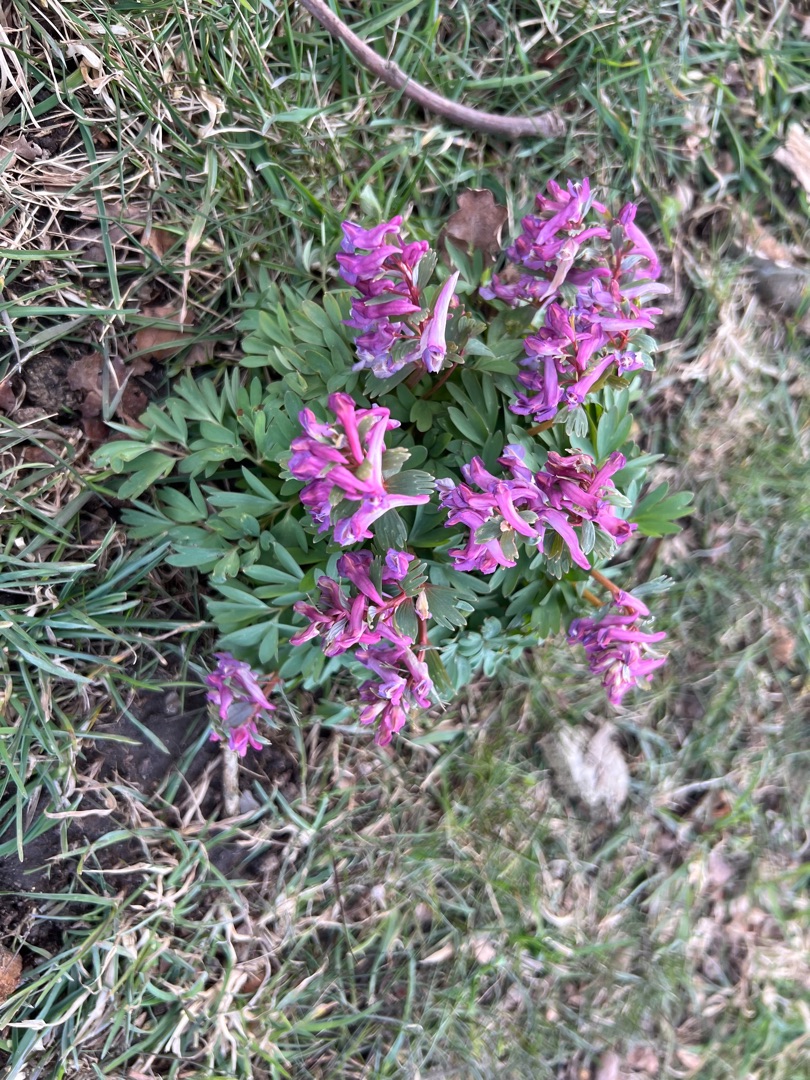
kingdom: Plantae
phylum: Tracheophyta
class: Magnoliopsida
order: Ranunculales
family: Papaveraceae
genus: Corydalis
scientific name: Corydalis solida
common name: Langstilket lærkespore
